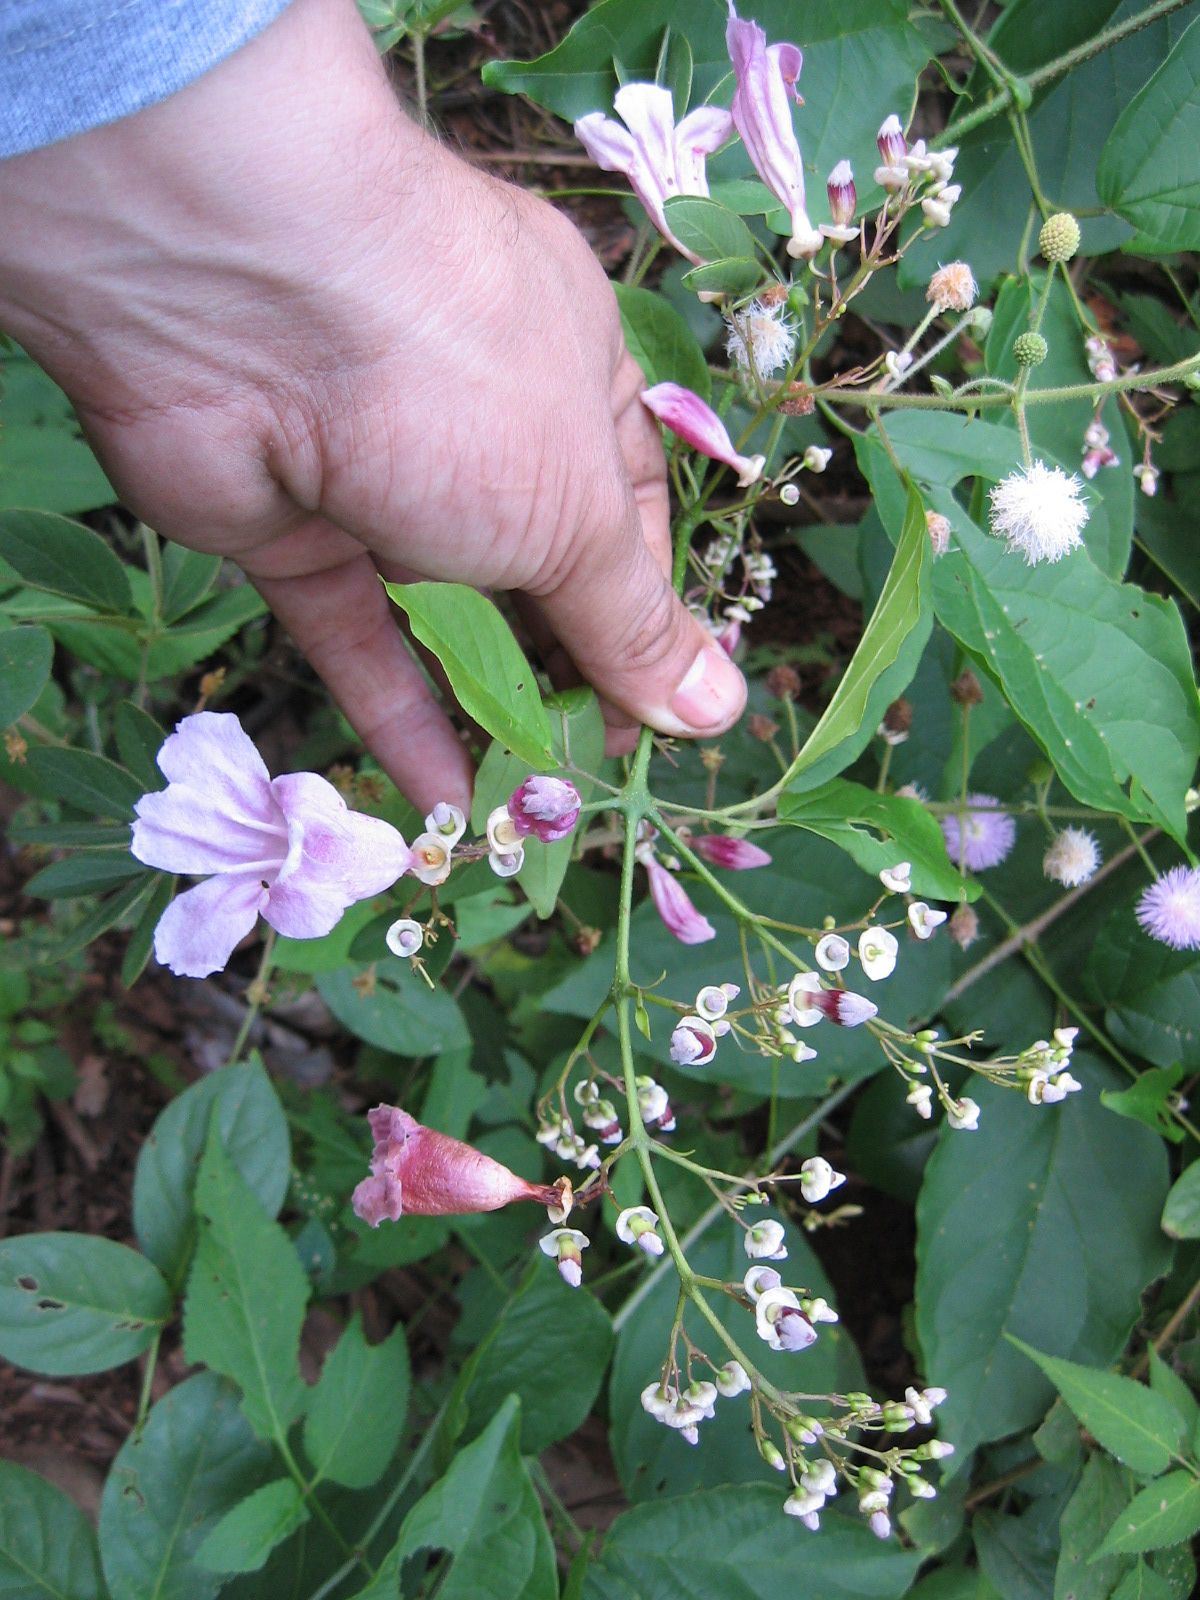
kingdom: Plantae
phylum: Tracheophyta
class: Magnoliopsida
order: Lamiales
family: Bignoniaceae
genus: Fridericia
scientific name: Fridericia patellifera
